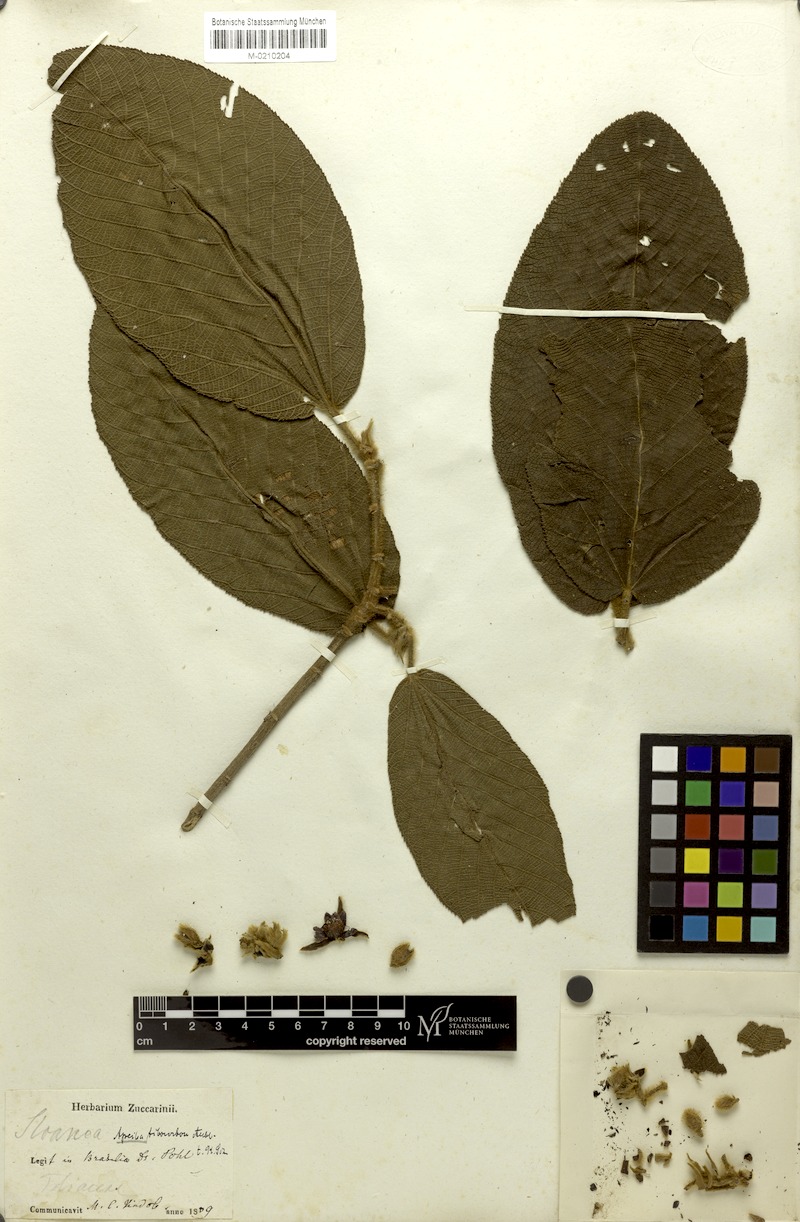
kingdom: Plantae
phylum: Tracheophyta
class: Magnoliopsida
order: Malvales
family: Malvaceae
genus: Apeiba
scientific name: Apeiba tibourbou
